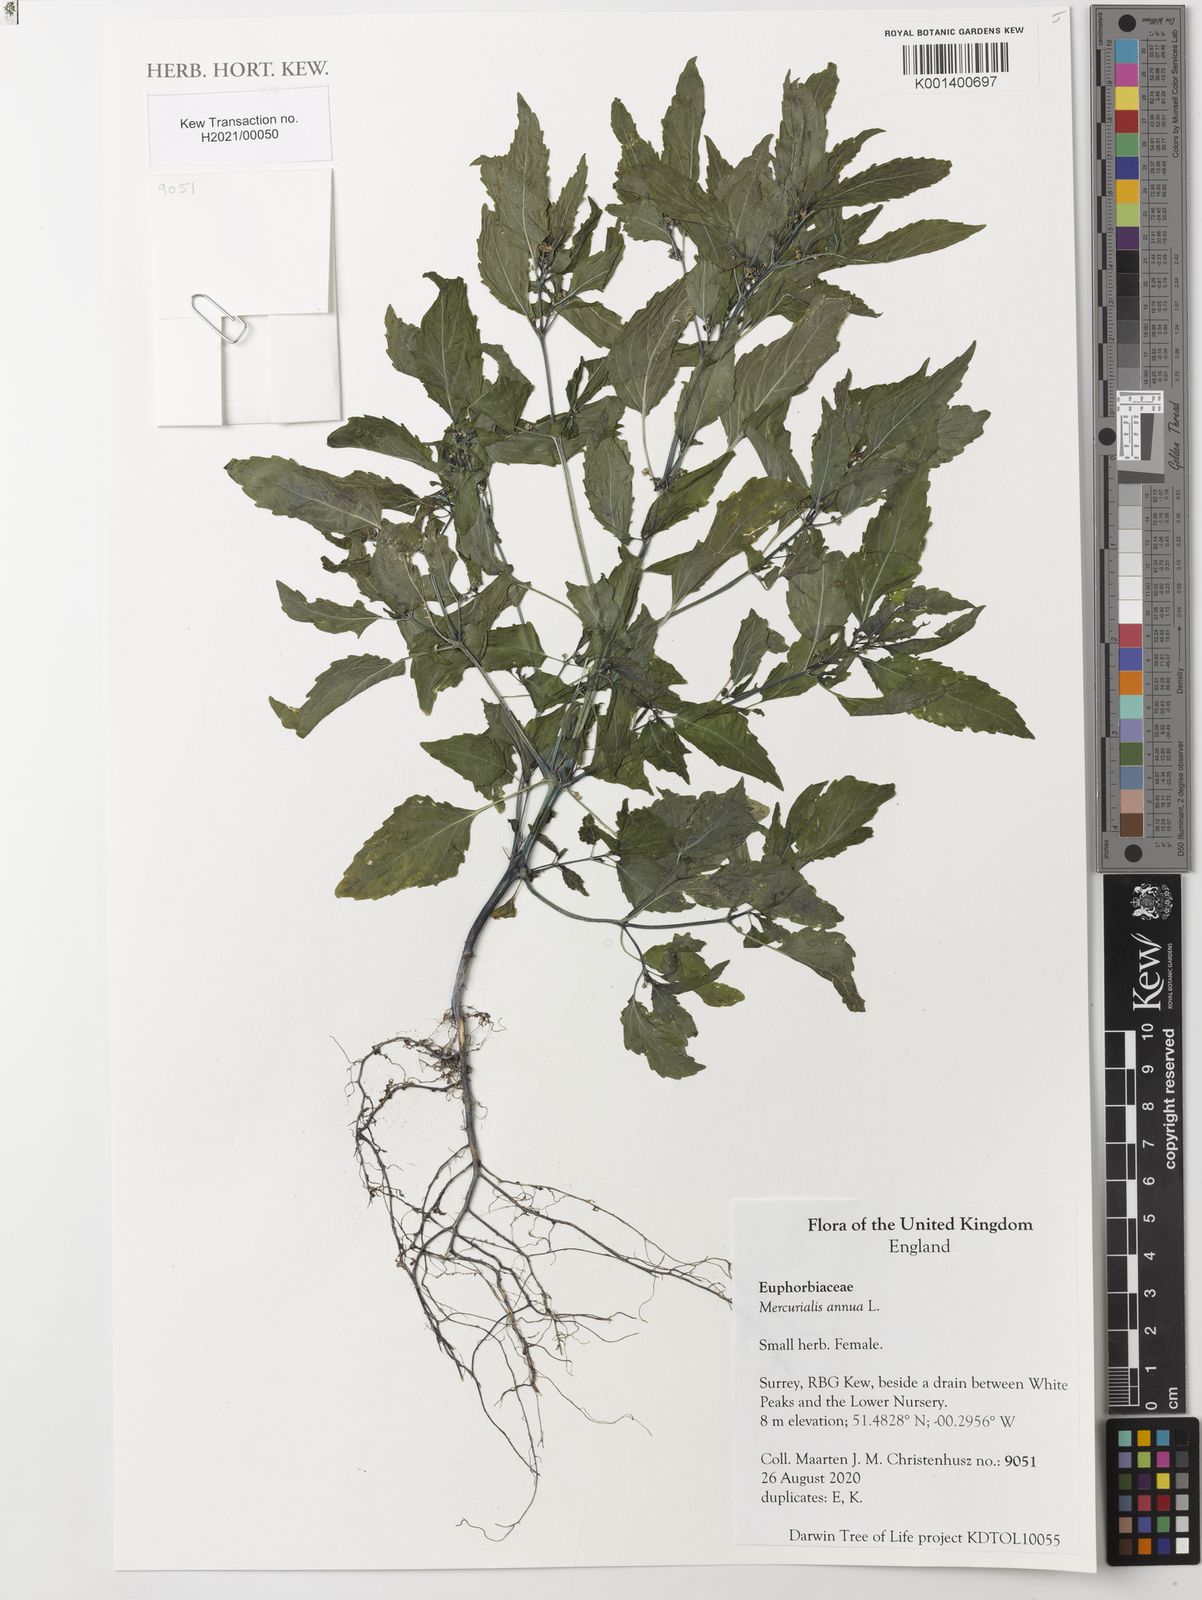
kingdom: Plantae
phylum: Tracheophyta
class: Magnoliopsida
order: Malpighiales
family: Euphorbiaceae
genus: Mercurialis
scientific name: Mercurialis annua
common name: Annual mercury
